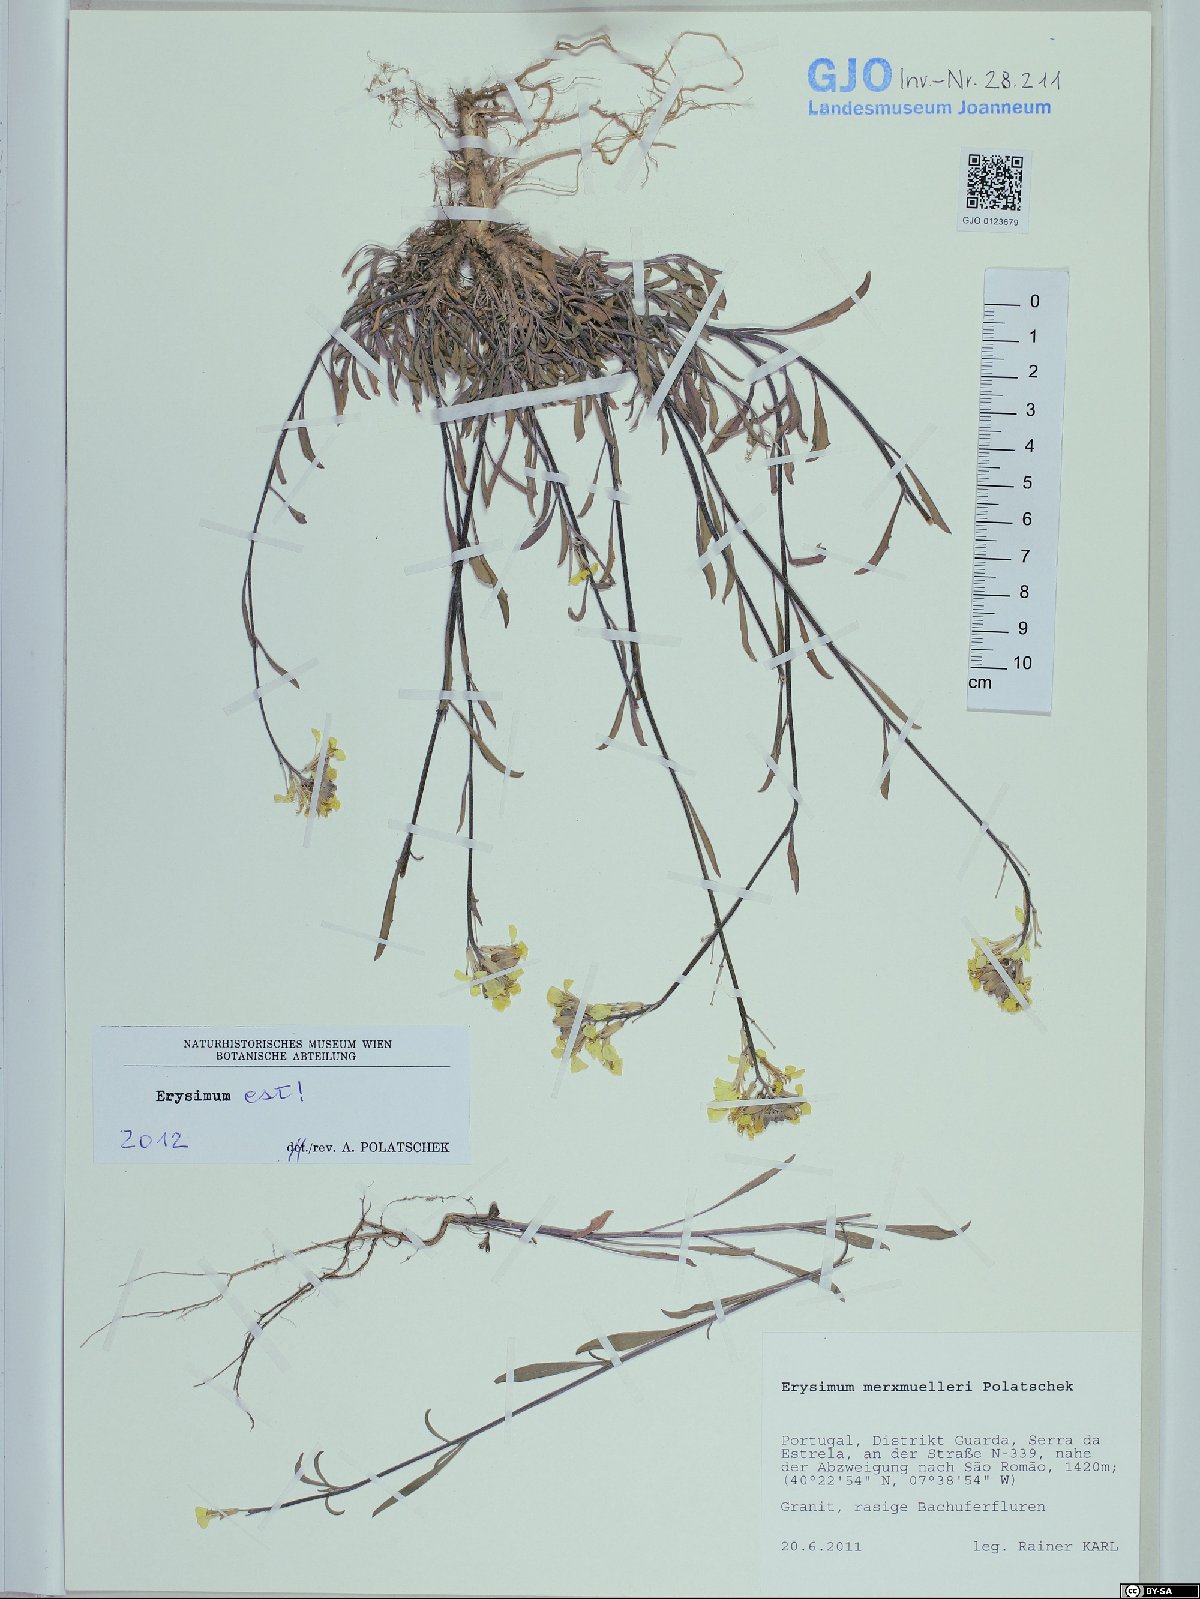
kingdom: Plantae
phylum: Tracheophyta
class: Magnoliopsida
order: Brassicales
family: Brassicaceae
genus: Erysimum
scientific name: Erysimum nevadense
